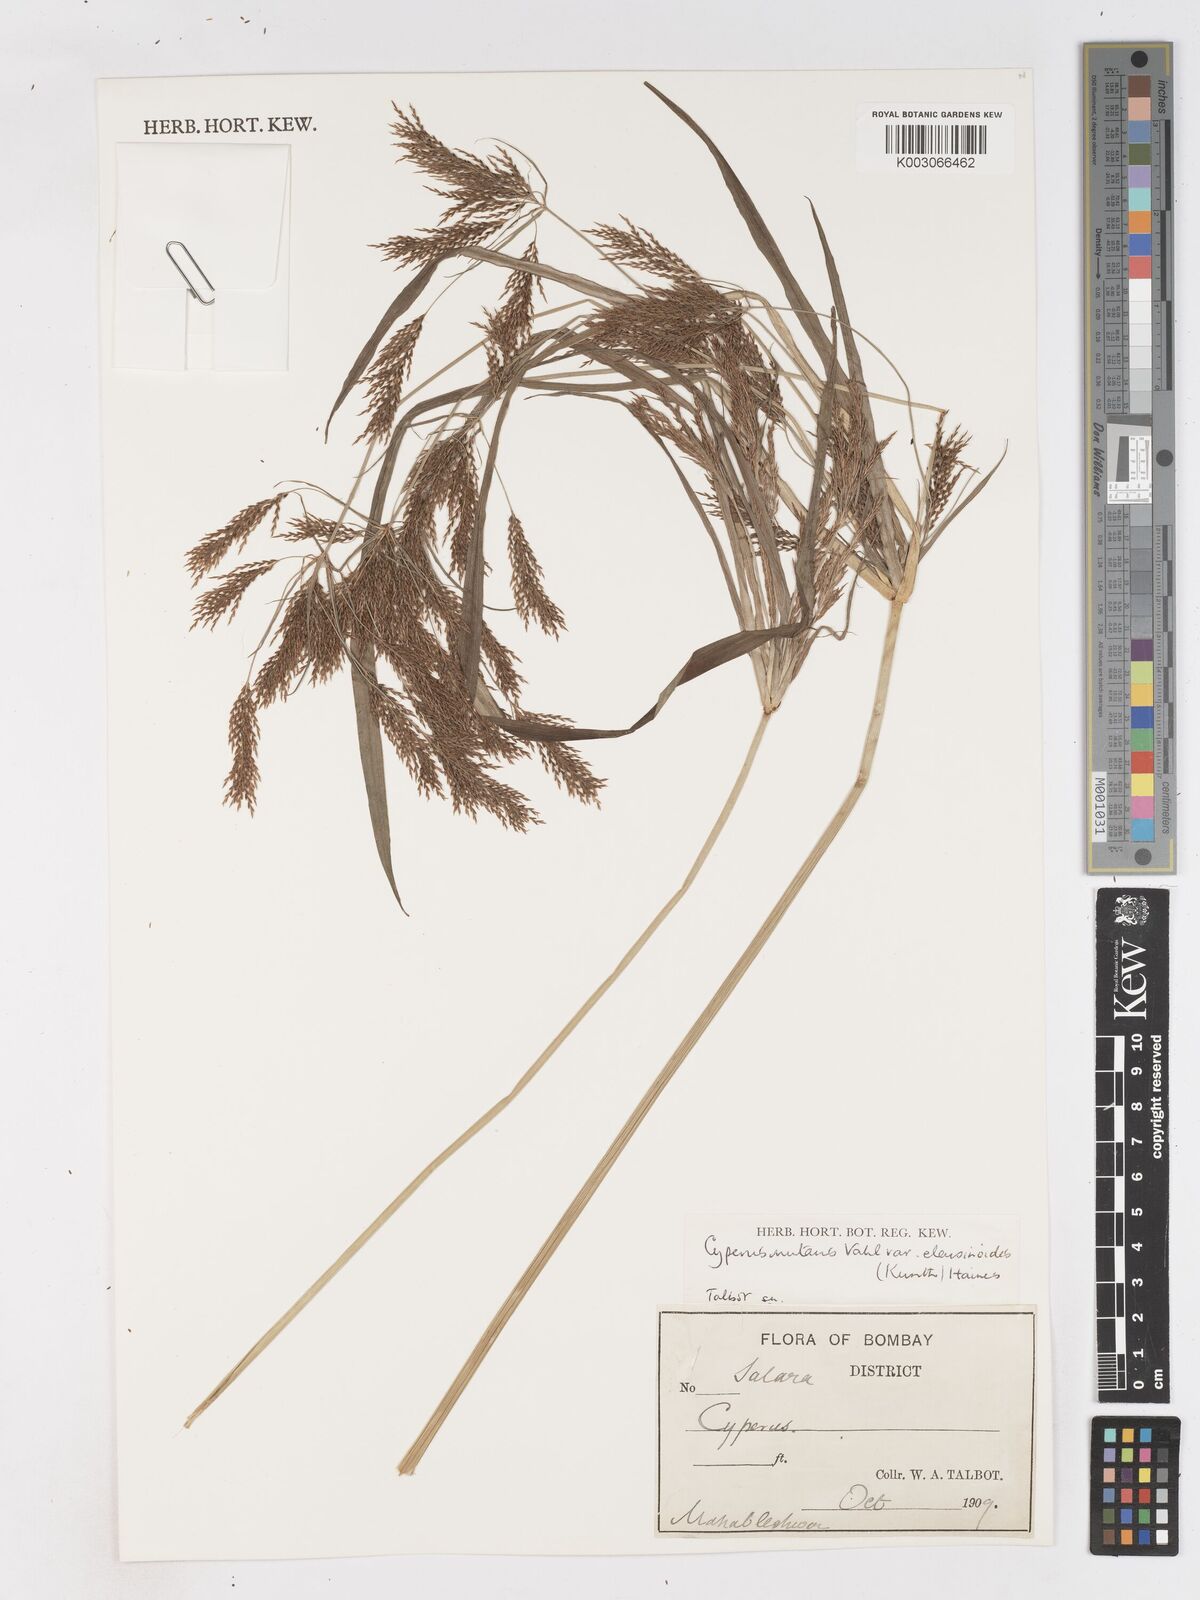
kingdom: Plantae
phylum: Tracheophyta
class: Liliopsida
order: Poales
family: Cyperaceae
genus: Cyperus
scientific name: Cyperus nutans
